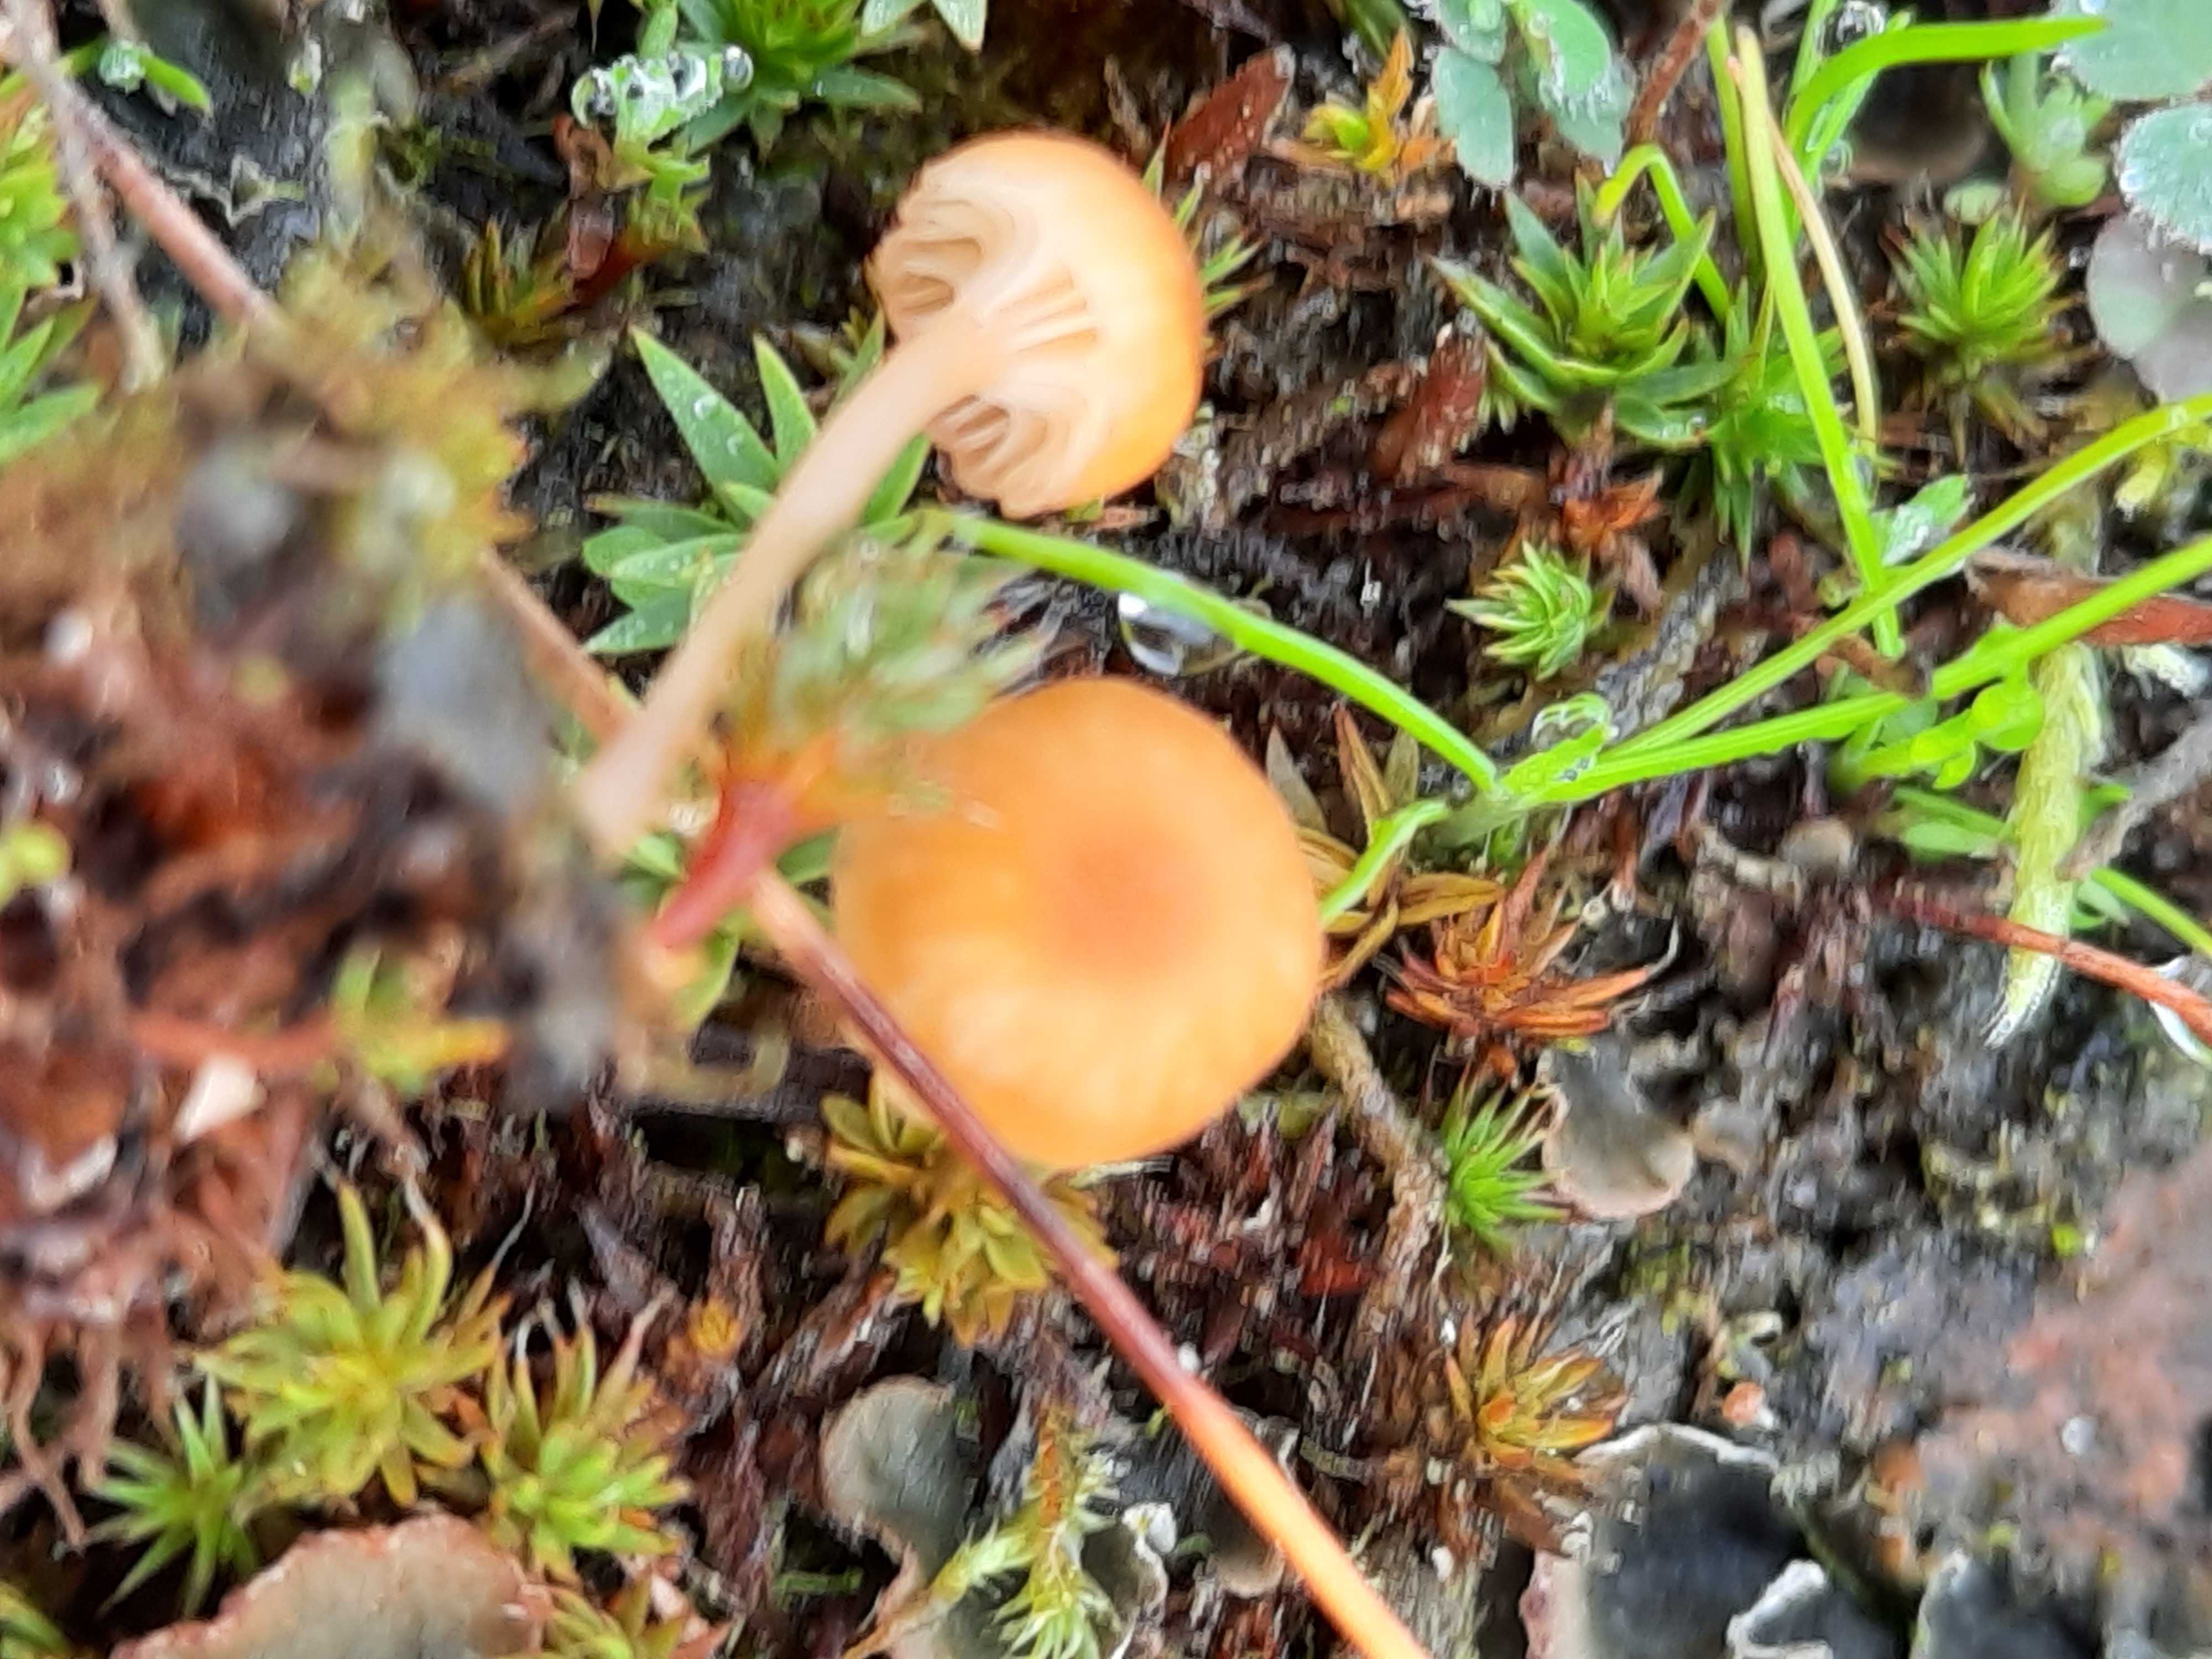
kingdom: Fungi
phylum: Basidiomycota
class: Agaricomycetes
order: Hymenochaetales
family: Rickenellaceae
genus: Rickenella
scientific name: Rickenella fibula
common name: orange mosnavlehat
